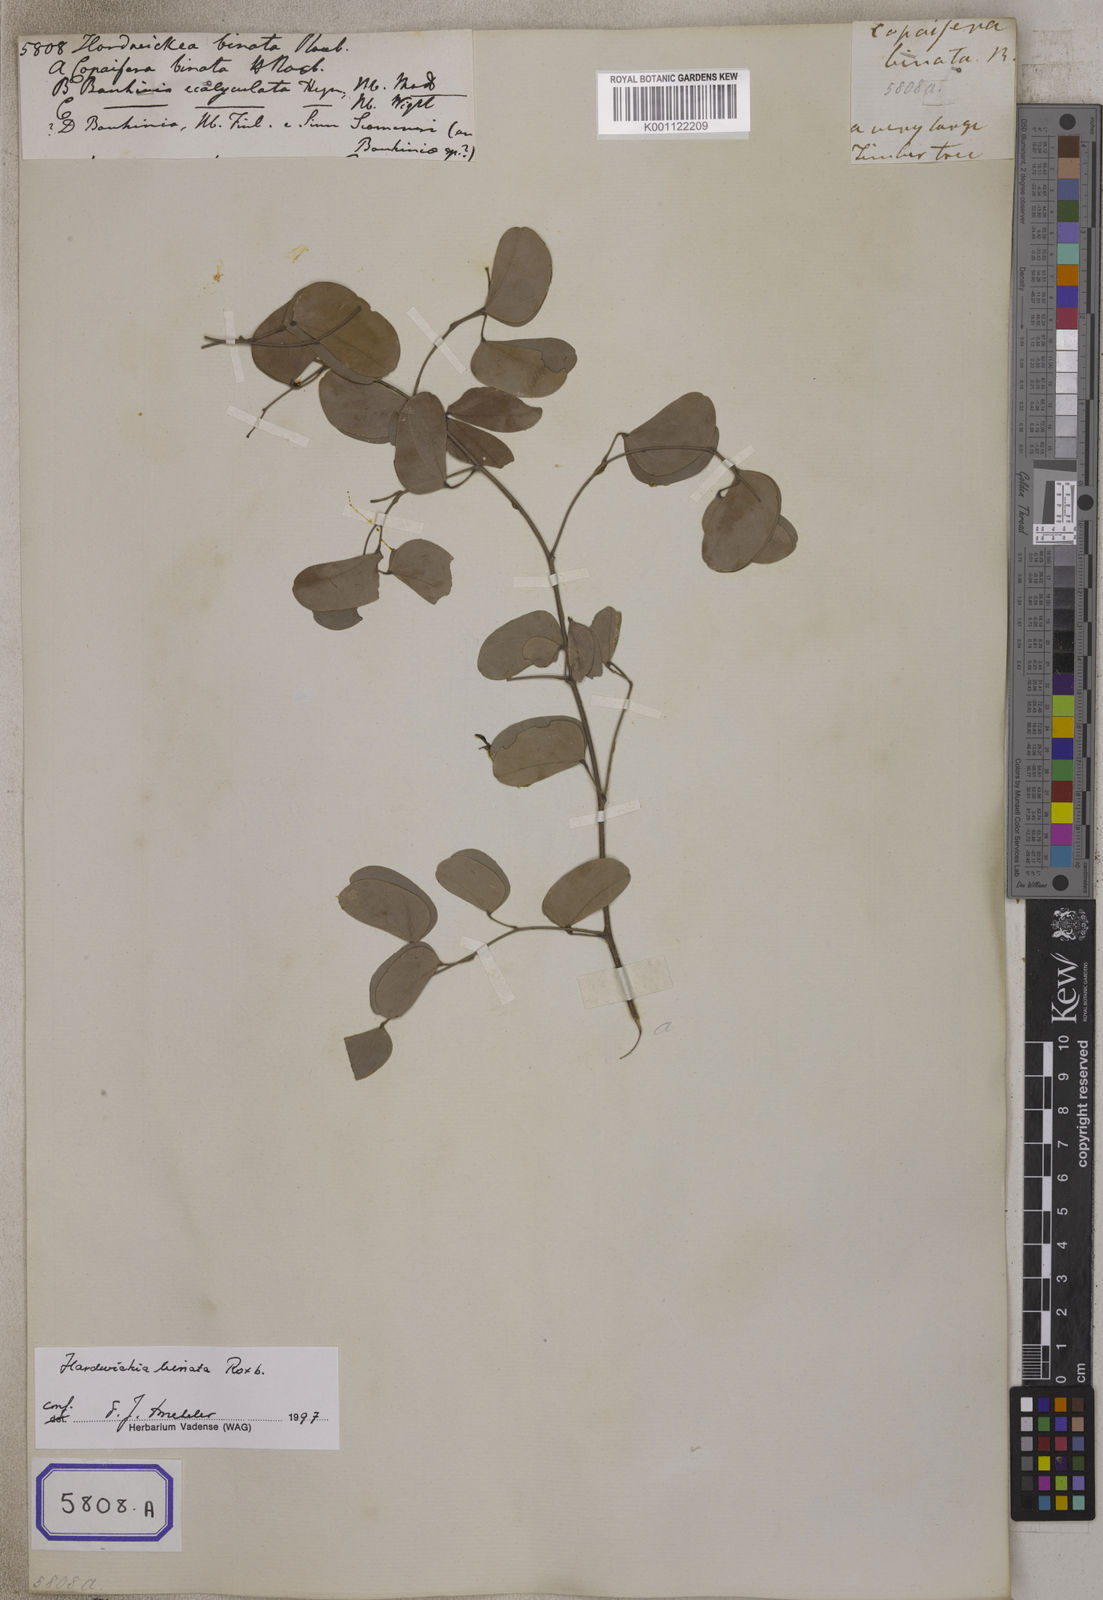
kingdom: Plantae
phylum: Tracheophyta
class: Magnoliopsida
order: Fabales
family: Fabaceae
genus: Hardwickia
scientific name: Hardwickia binata
